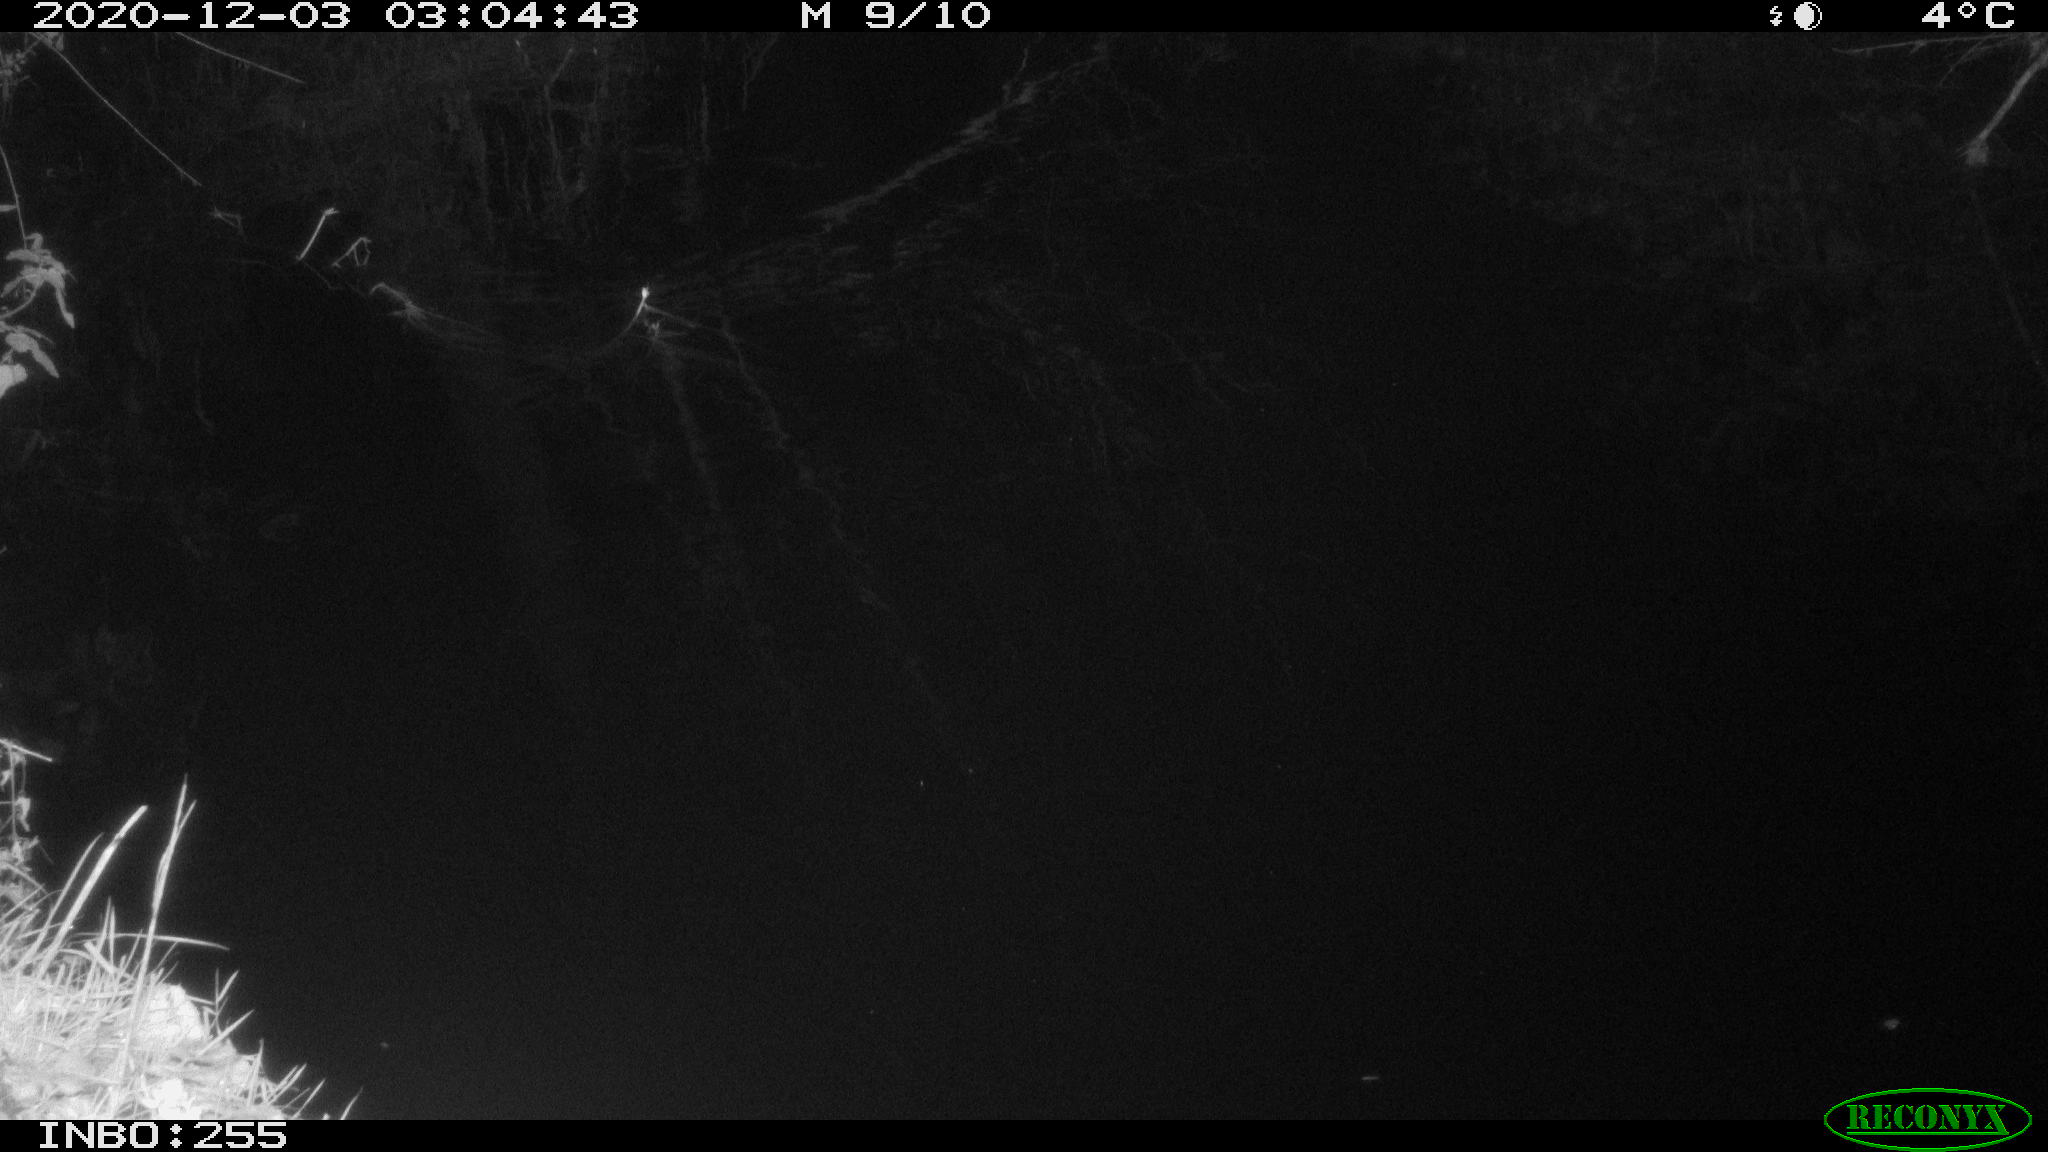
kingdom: Animalia
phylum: Chordata
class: Mammalia
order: Rodentia
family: Muridae
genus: Rattus
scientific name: Rattus norvegicus
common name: Brown rat
